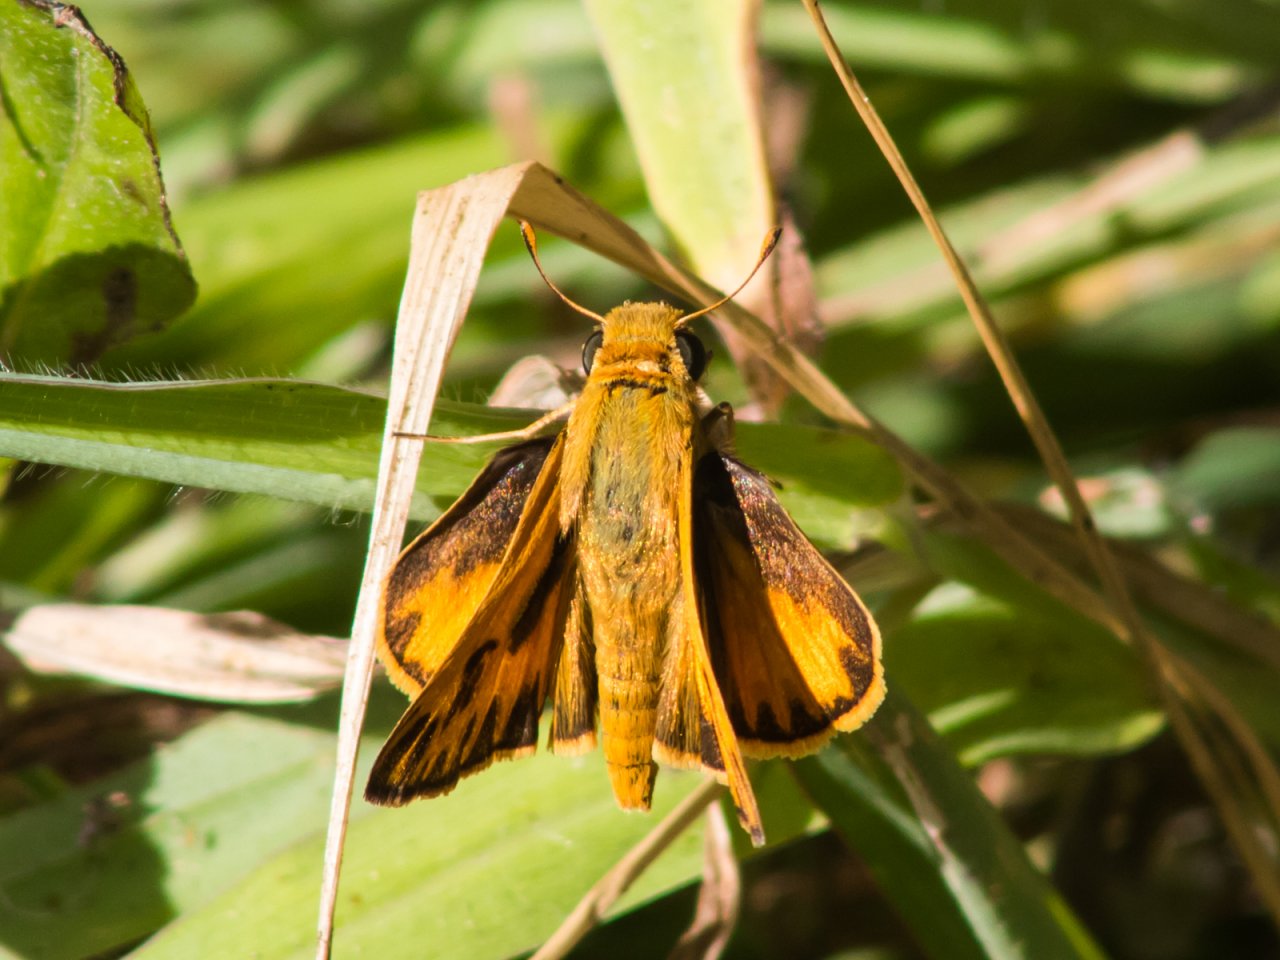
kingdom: Animalia
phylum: Arthropoda
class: Insecta
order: Lepidoptera
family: Hesperiidae
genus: Hylephila
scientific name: Hylephila phyleus
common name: Fiery Skipper
